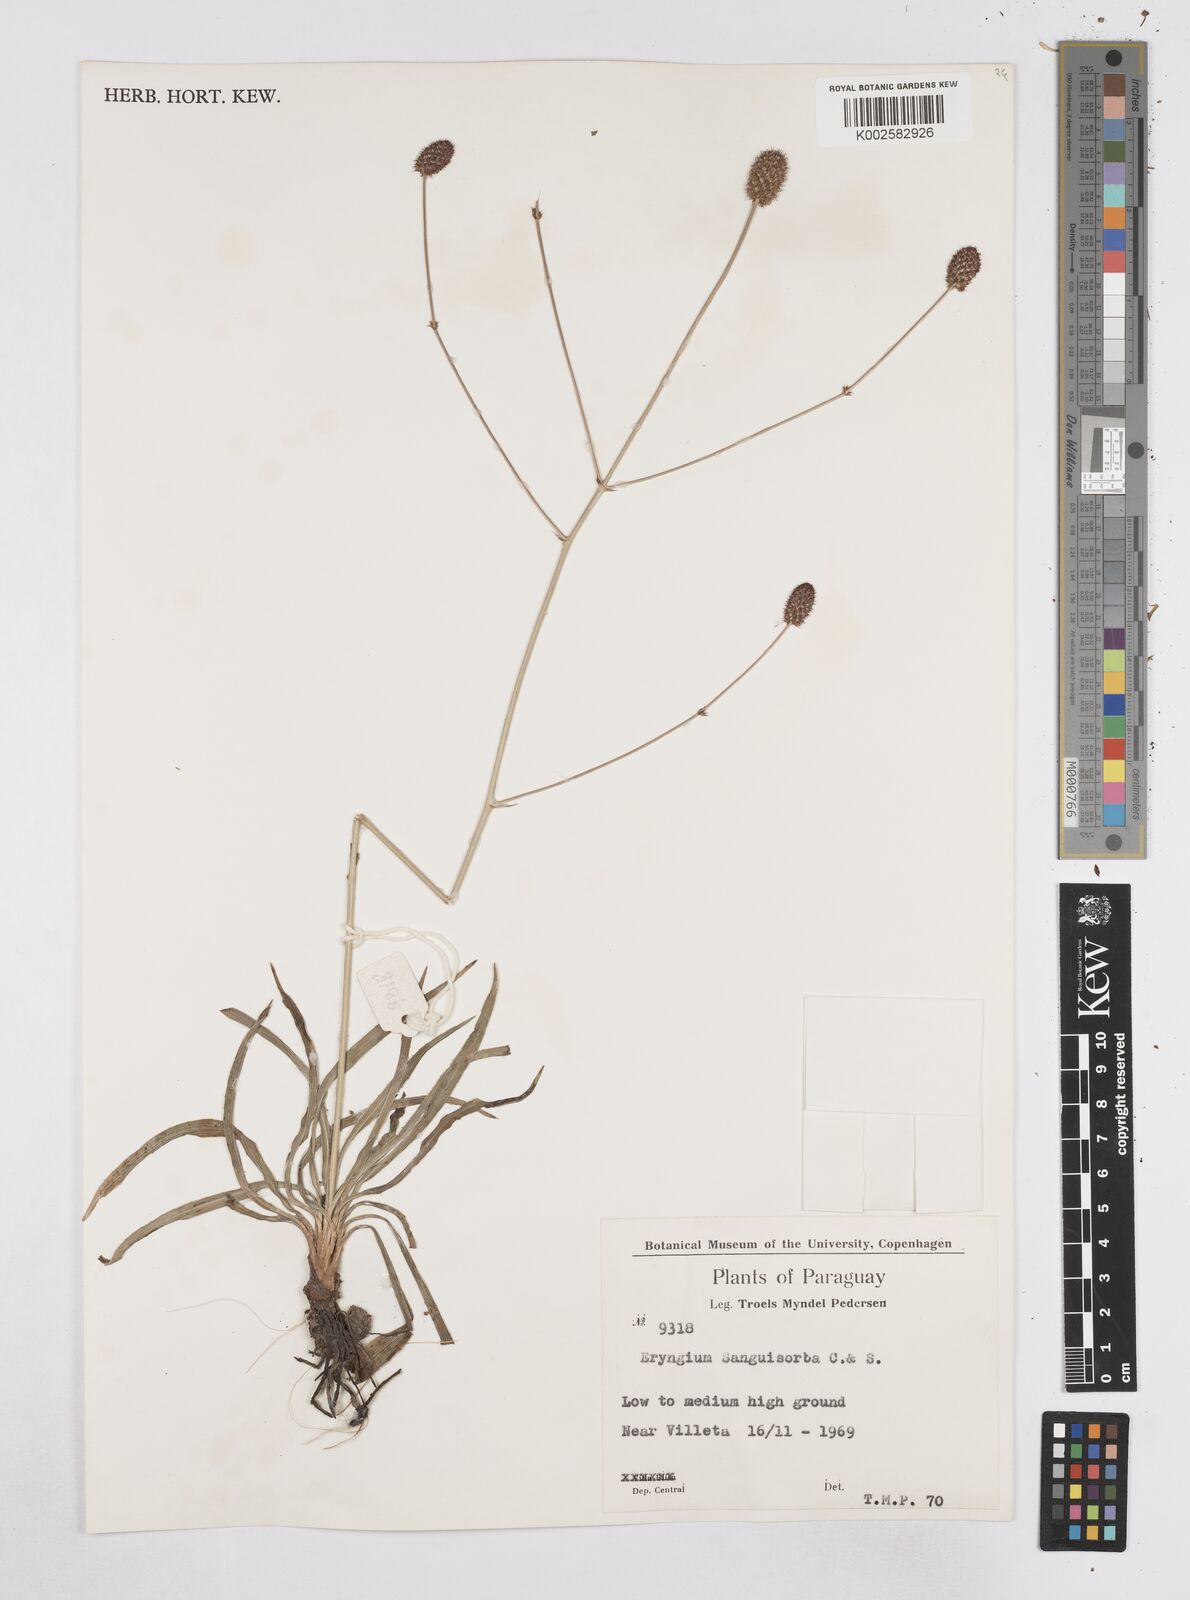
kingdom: Plantae
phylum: Tracheophyta
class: Magnoliopsida
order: Apiales
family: Apiaceae
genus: Eryngium
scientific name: Eryngium sanguisorba
